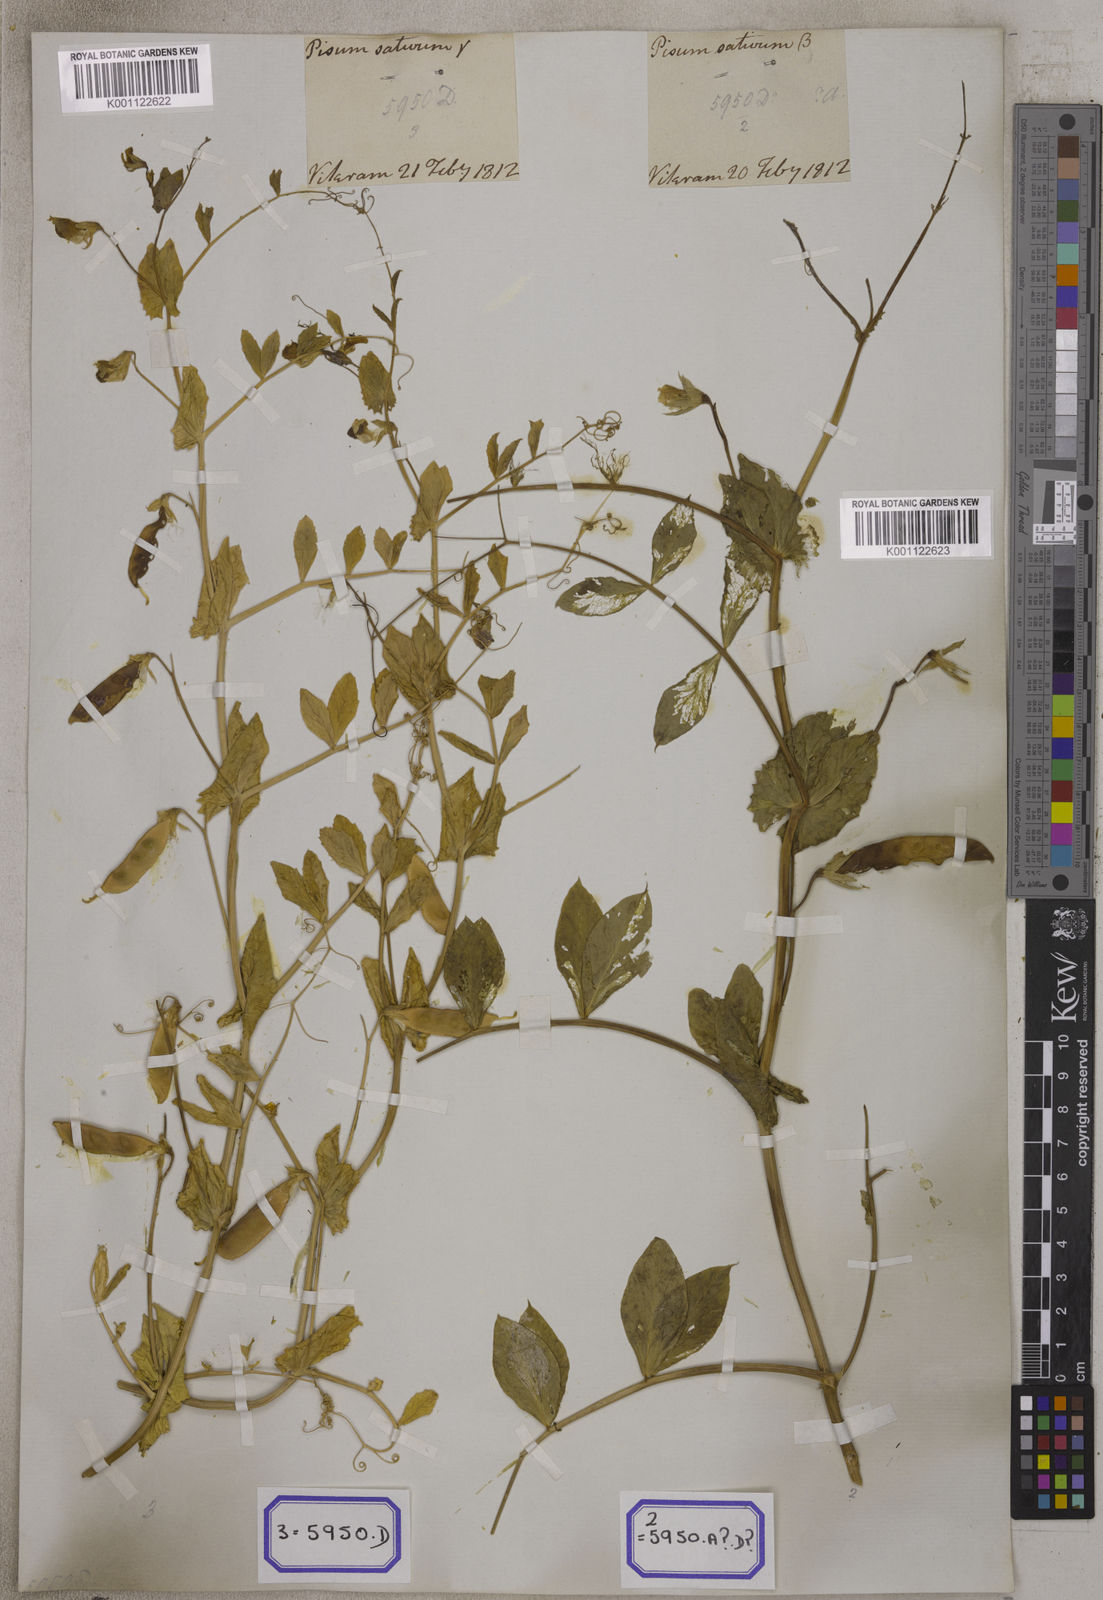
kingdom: Plantae
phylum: Tracheophyta
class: Magnoliopsida
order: Fabales
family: Fabaceae
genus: Lathyrus
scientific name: Lathyrus oleraceus
